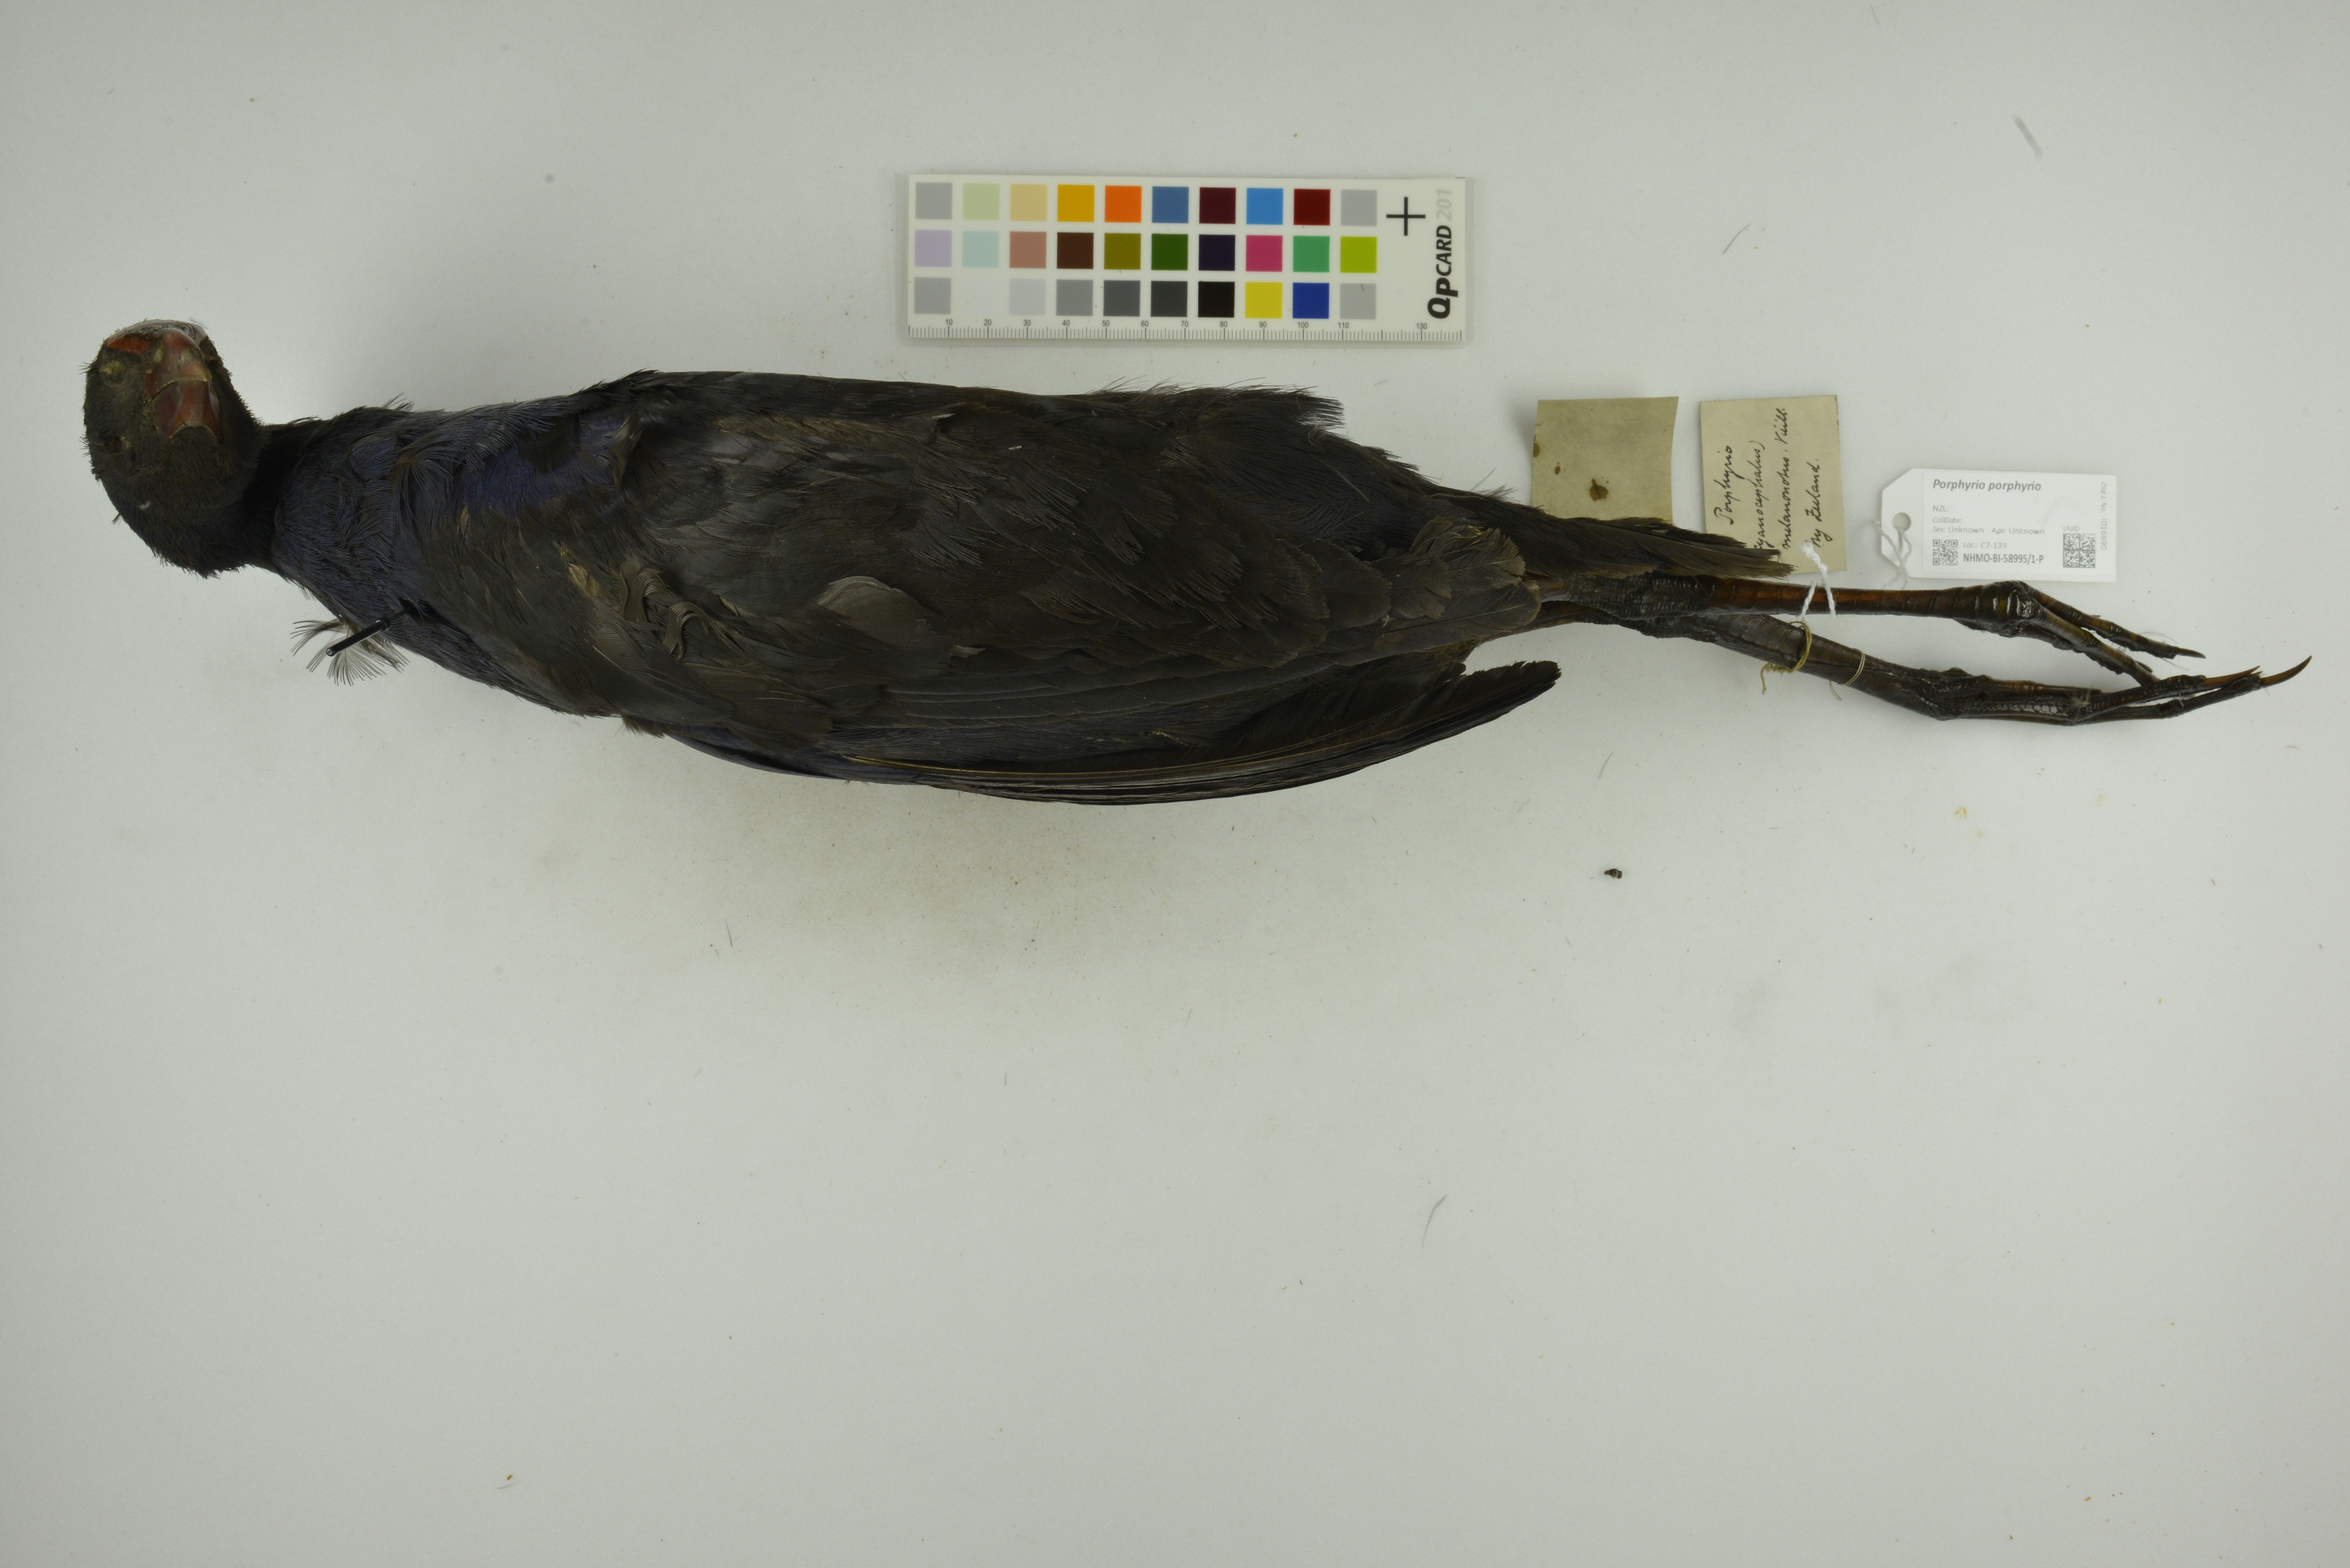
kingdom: Animalia
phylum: Chordata
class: Aves
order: Gruiformes
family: Rallidae
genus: Porphyrio
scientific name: Porphyrio porphyrio
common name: Purple swamphen
